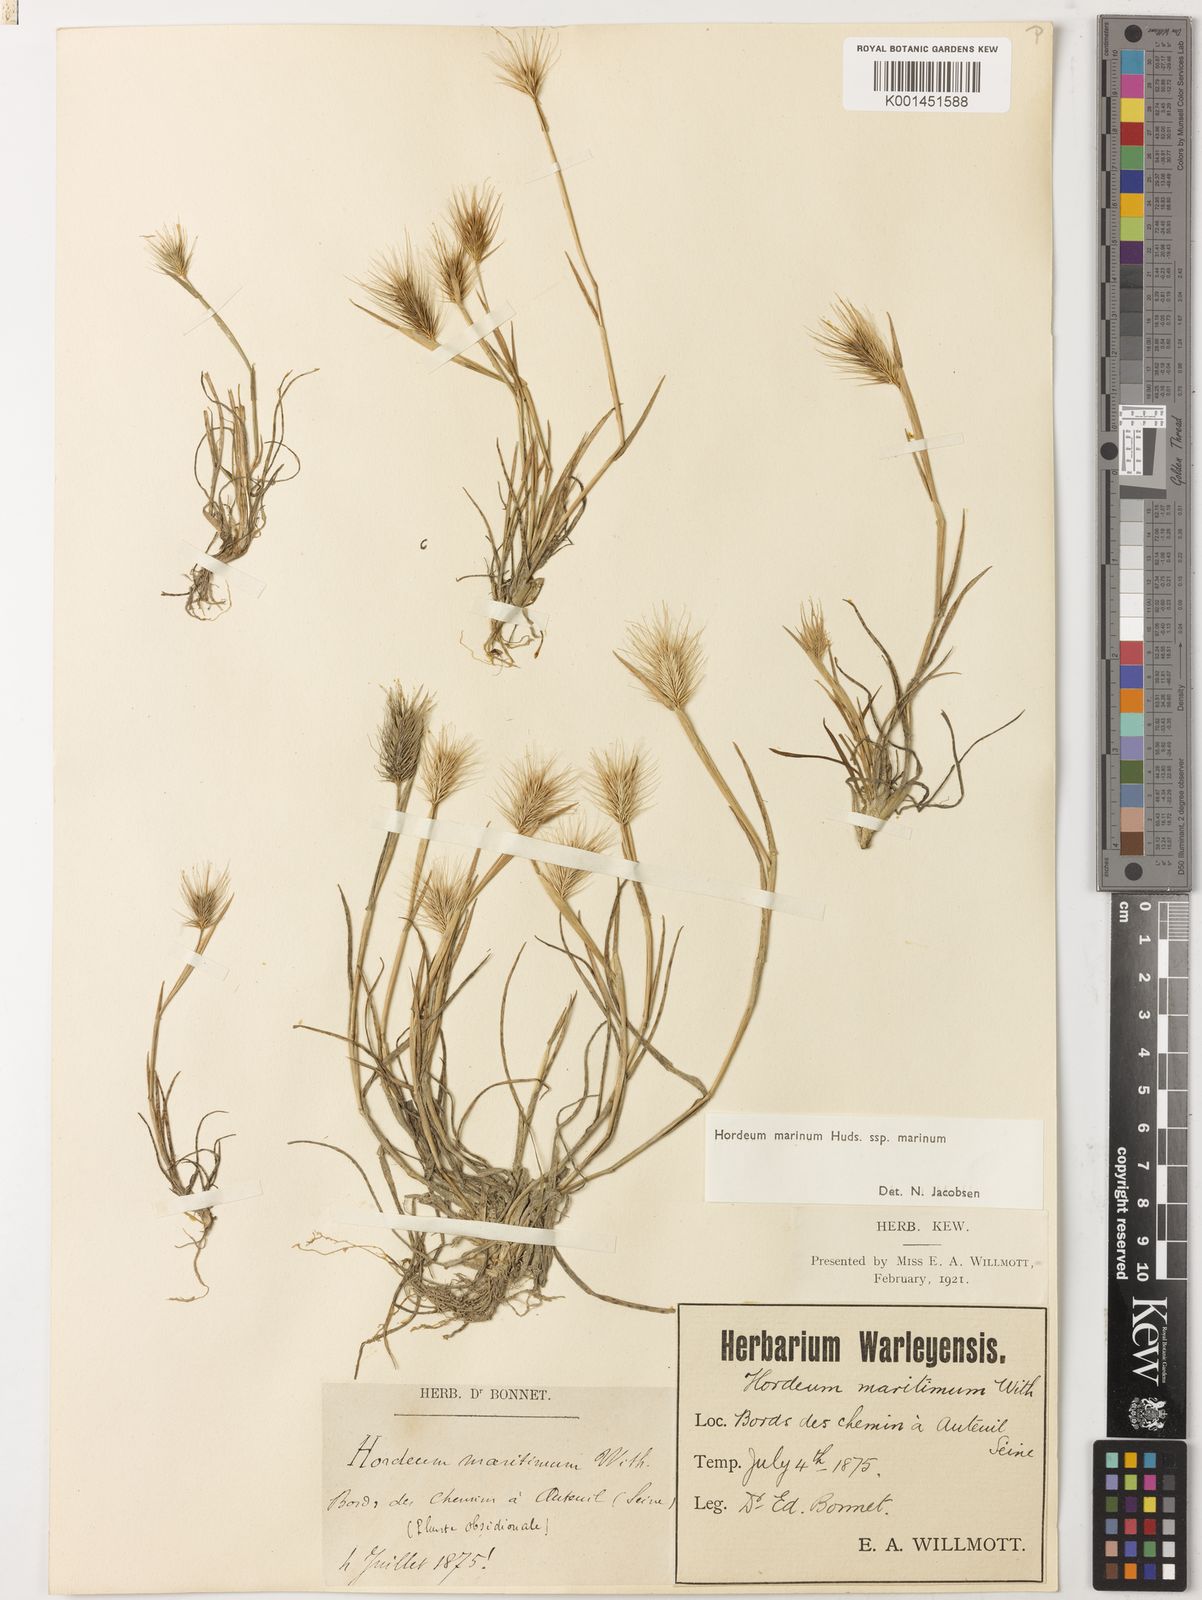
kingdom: Plantae
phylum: Tracheophyta
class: Liliopsida
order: Poales
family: Poaceae
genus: Hordeum
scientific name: Hordeum marinum
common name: Sea barley
